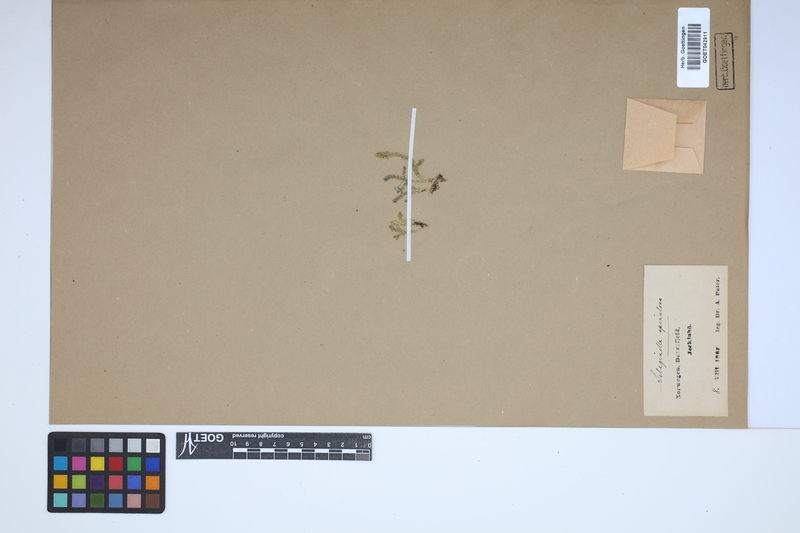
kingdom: Plantae
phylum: Tracheophyta
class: Lycopodiopsida
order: Selaginellales
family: Selaginellaceae
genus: Selaginella
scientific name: Selaginella selaginoides
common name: Prickly mountain-moss
